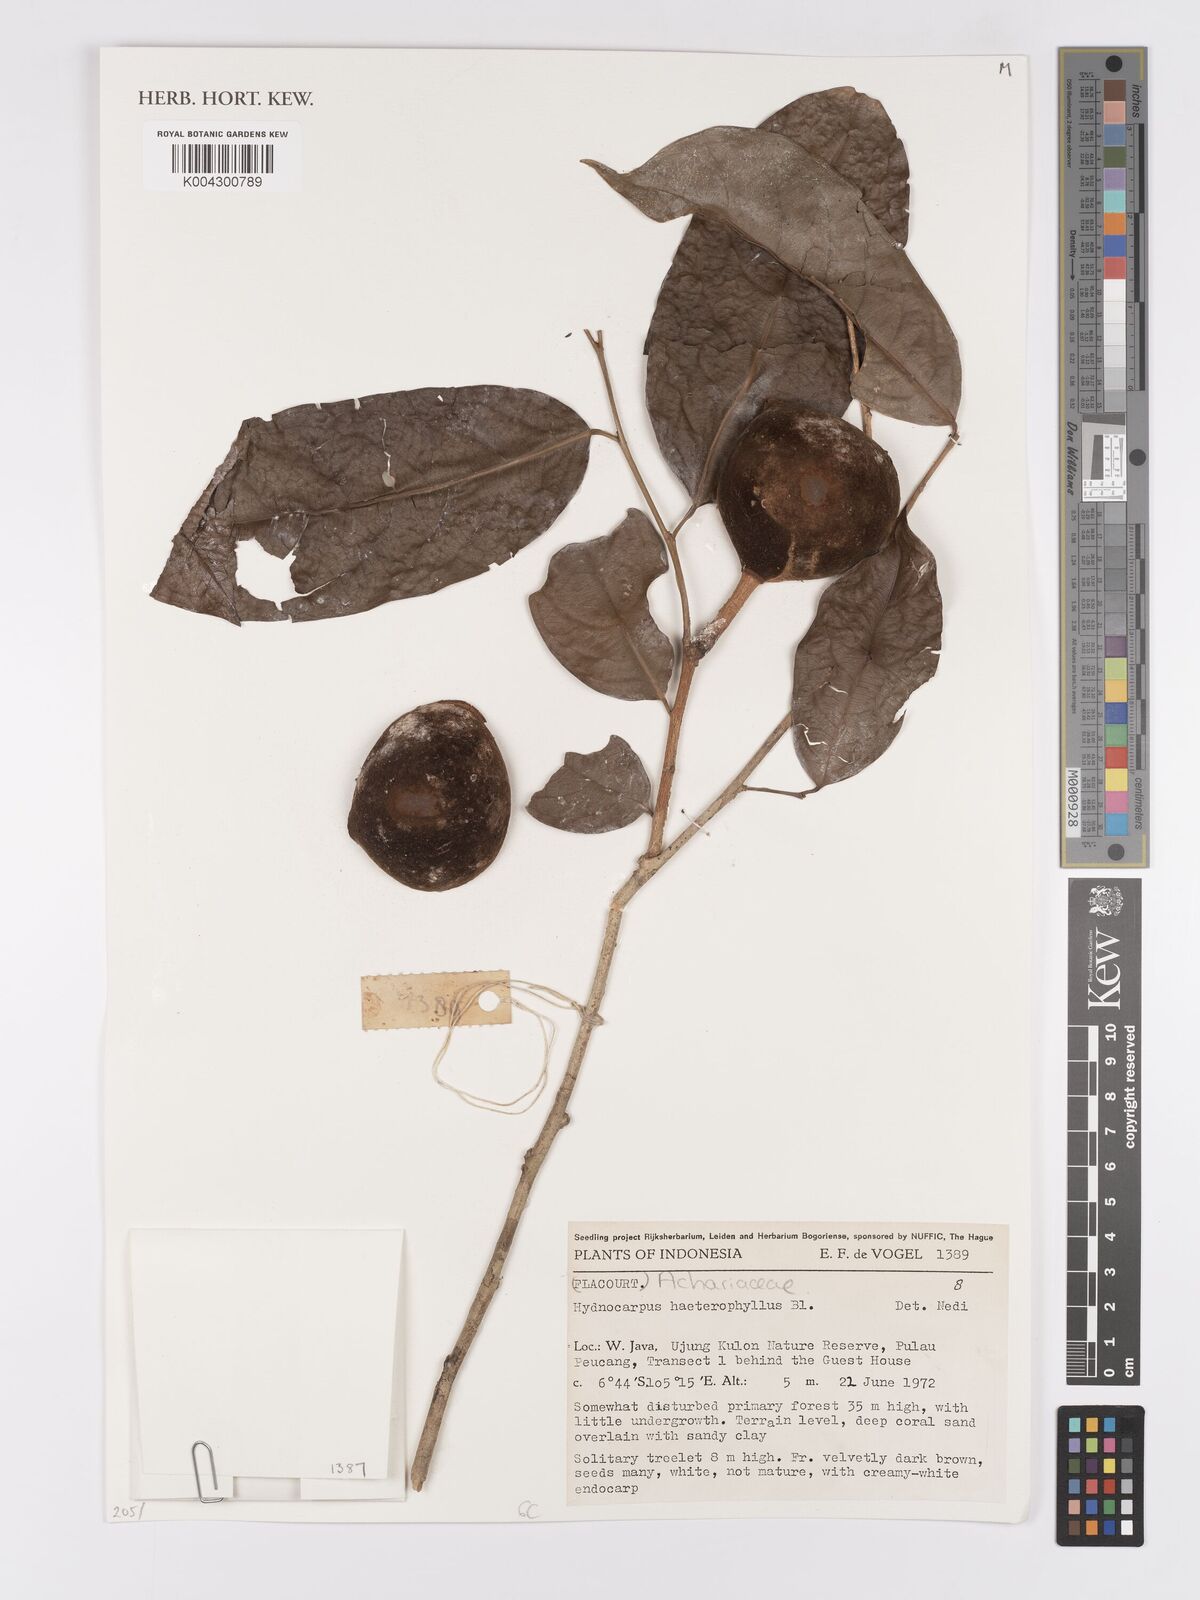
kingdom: Plantae
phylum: Tracheophyta
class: Magnoliopsida
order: Malpighiales
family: Achariaceae
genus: Hydnocarpus
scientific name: Hydnocarpus heterophyllus
